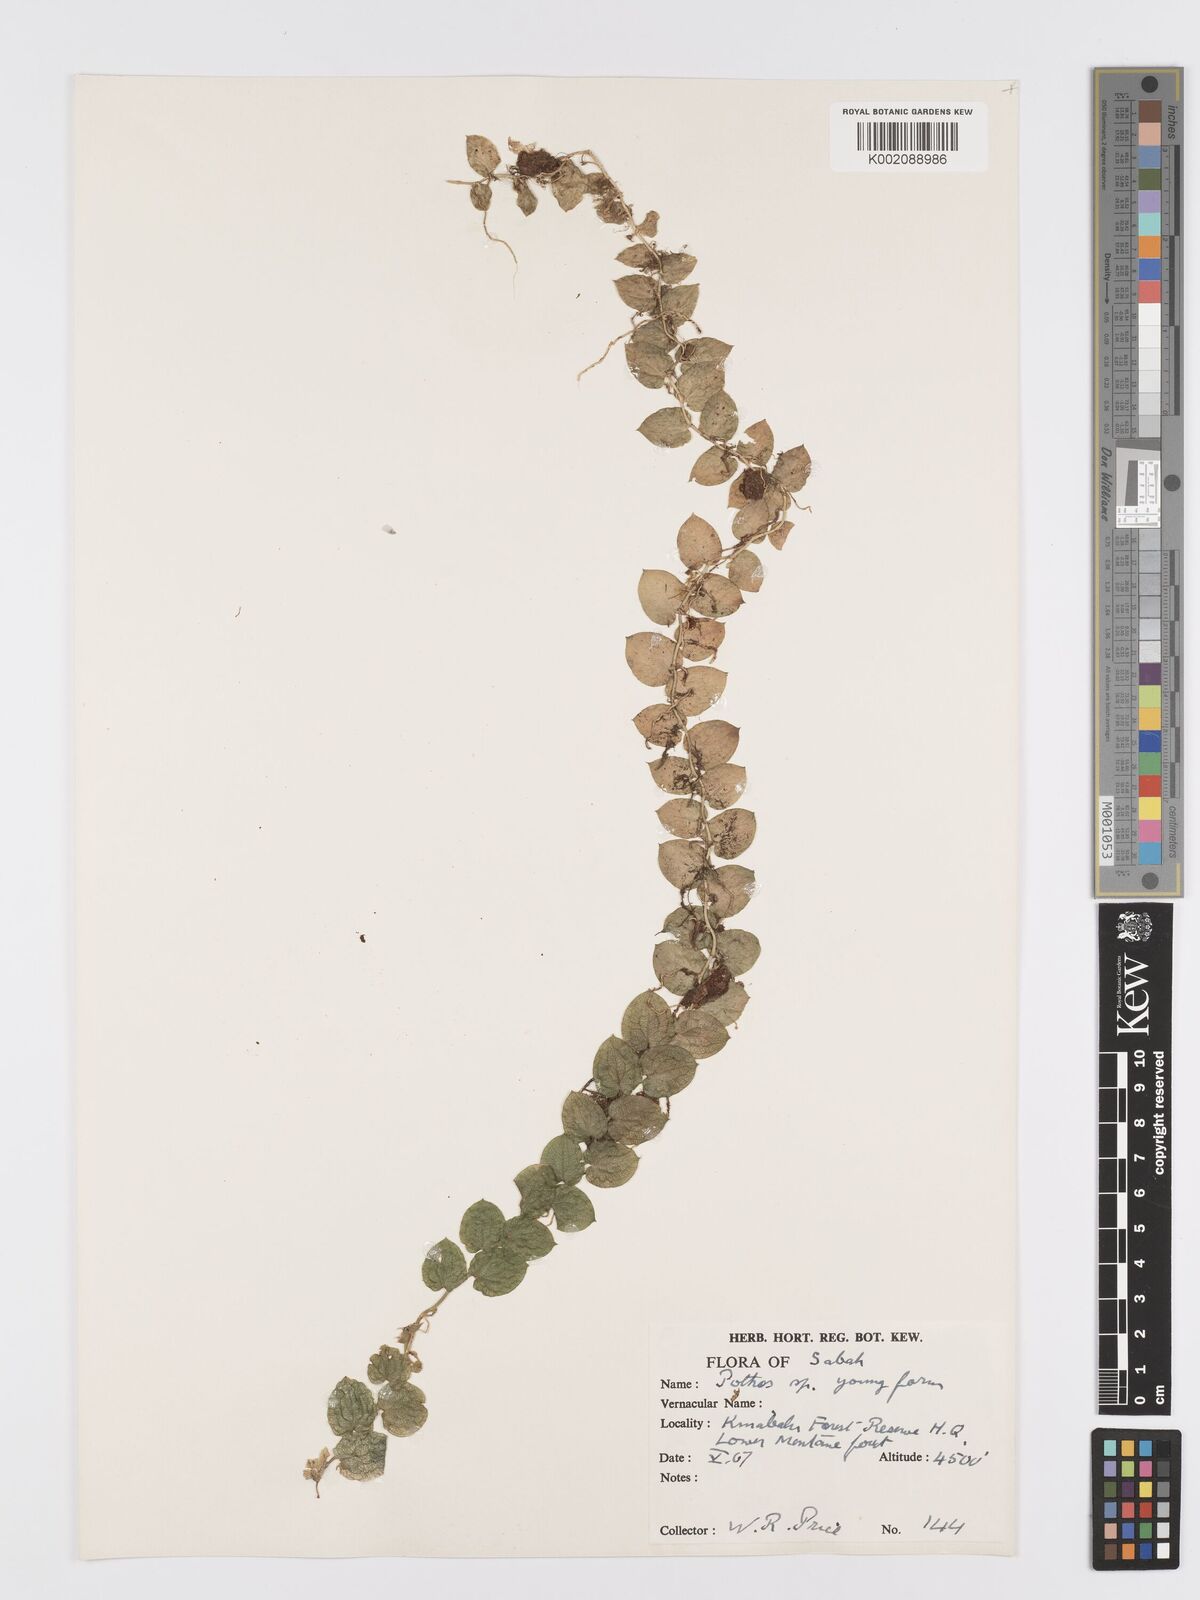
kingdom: Plantae
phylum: Tracheophyta
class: Liliopsida
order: Alismatales
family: Araceae
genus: Pothos
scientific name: Pothos
